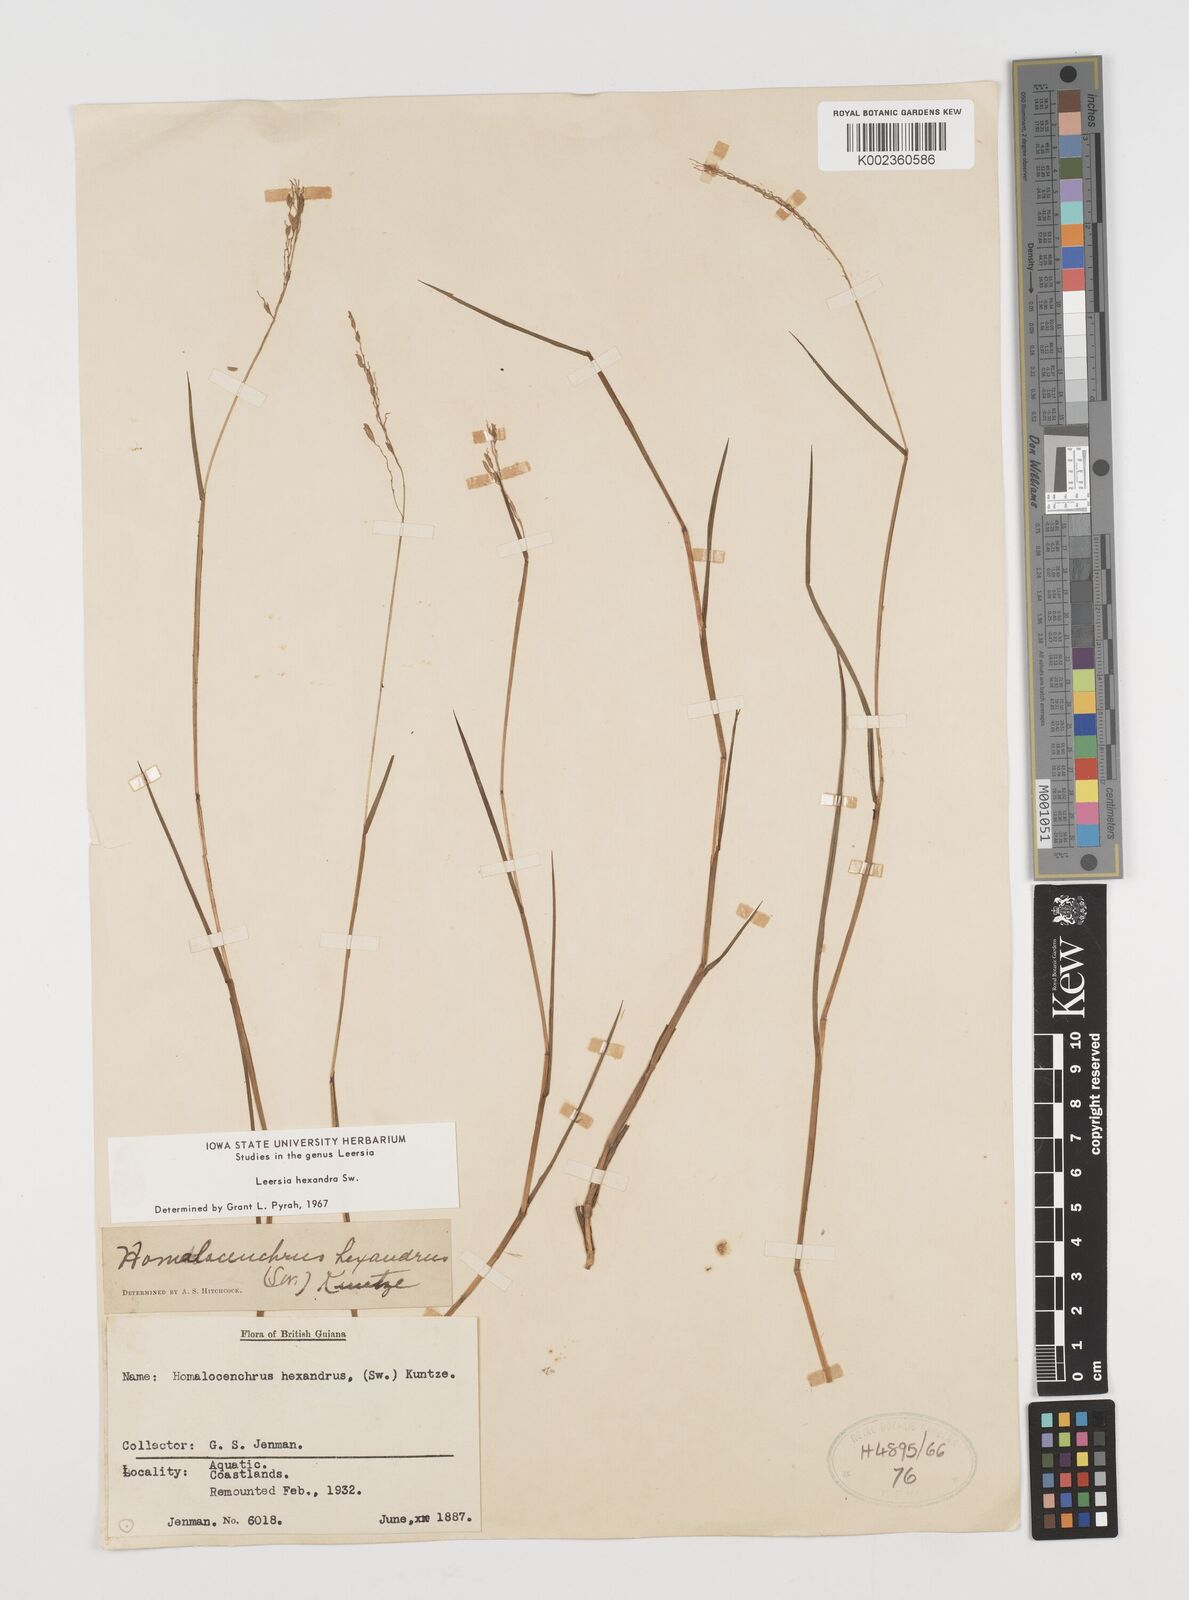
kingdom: Plantae
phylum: Tracheophyta
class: Liliopsida
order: Poales
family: Poaceae
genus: Leersia
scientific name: Leersia hexandra
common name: Southern cut grass
